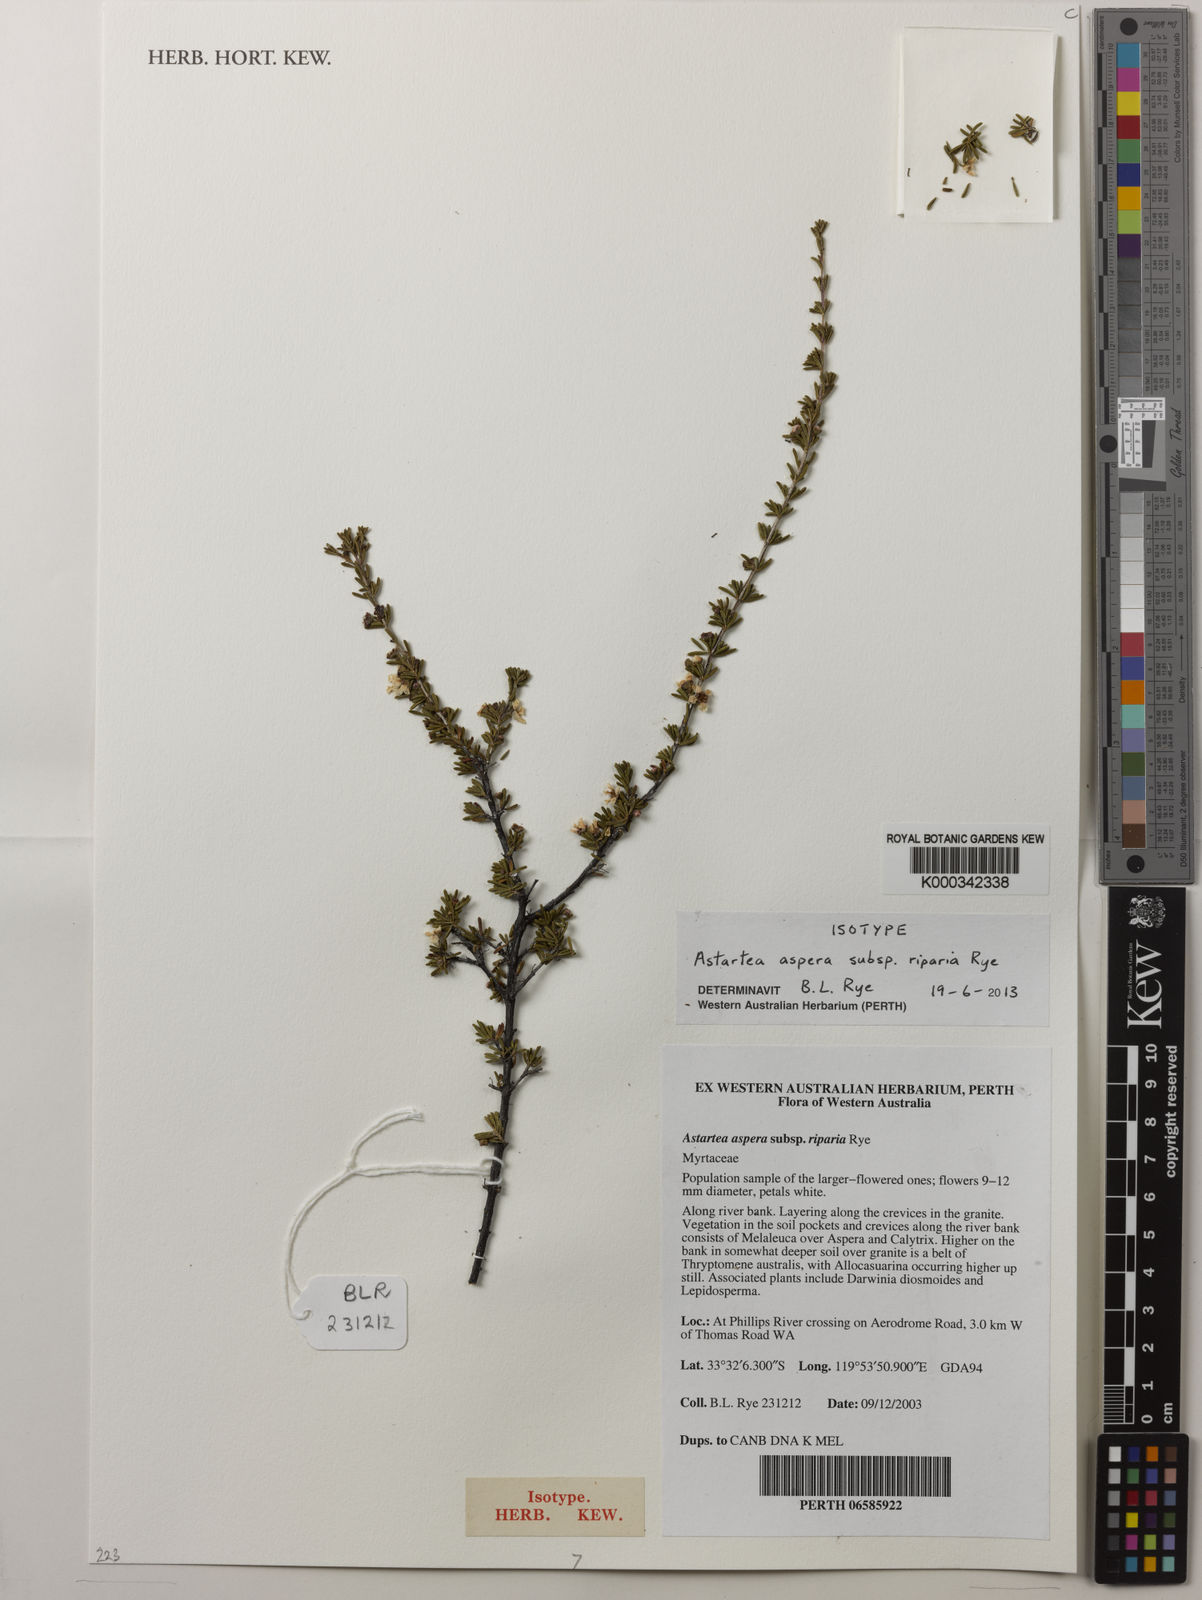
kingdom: Plantae
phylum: Tracheophyta
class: Magnoliopsida
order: Myrtales
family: Myrtaceae
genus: Astartea
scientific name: Astartea aspera
